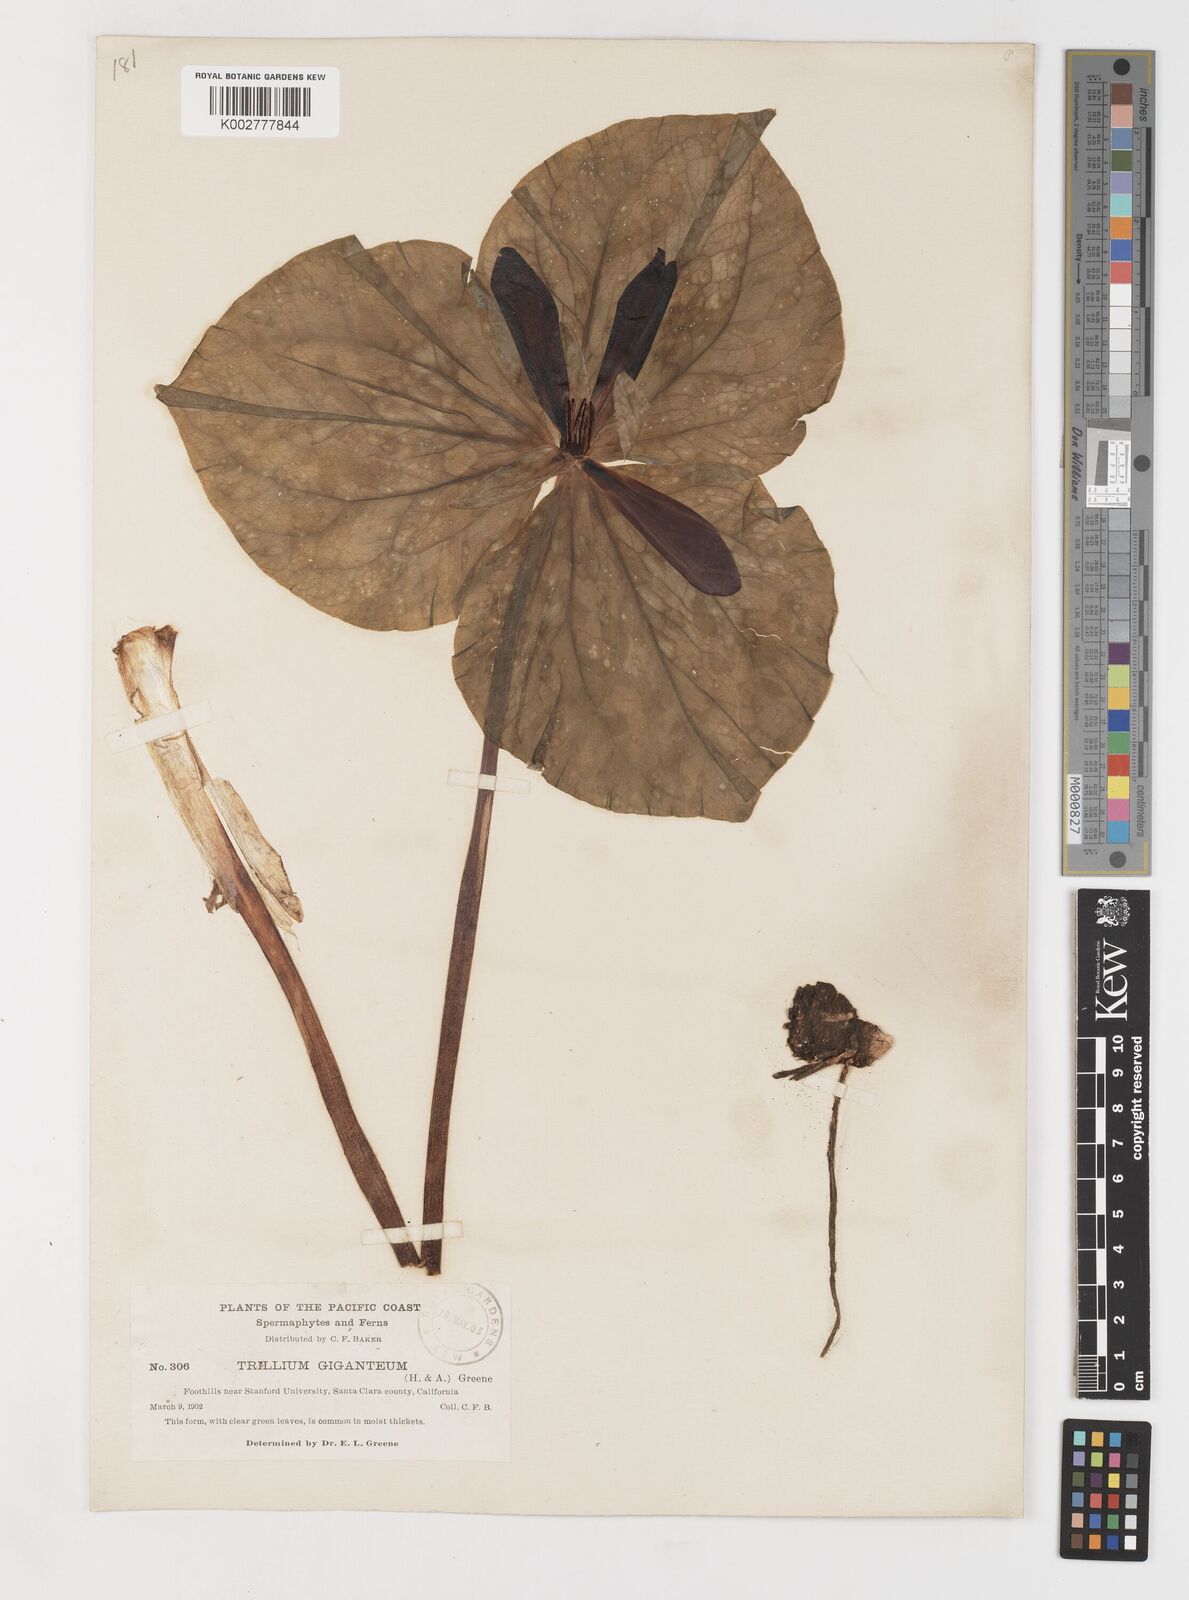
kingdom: Plantae
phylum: Tracheophyta
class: Liliopsida
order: Liliales
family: Melanthiaceae
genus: Trillium
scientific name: Trillium chloropetalum
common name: Giant trillium
